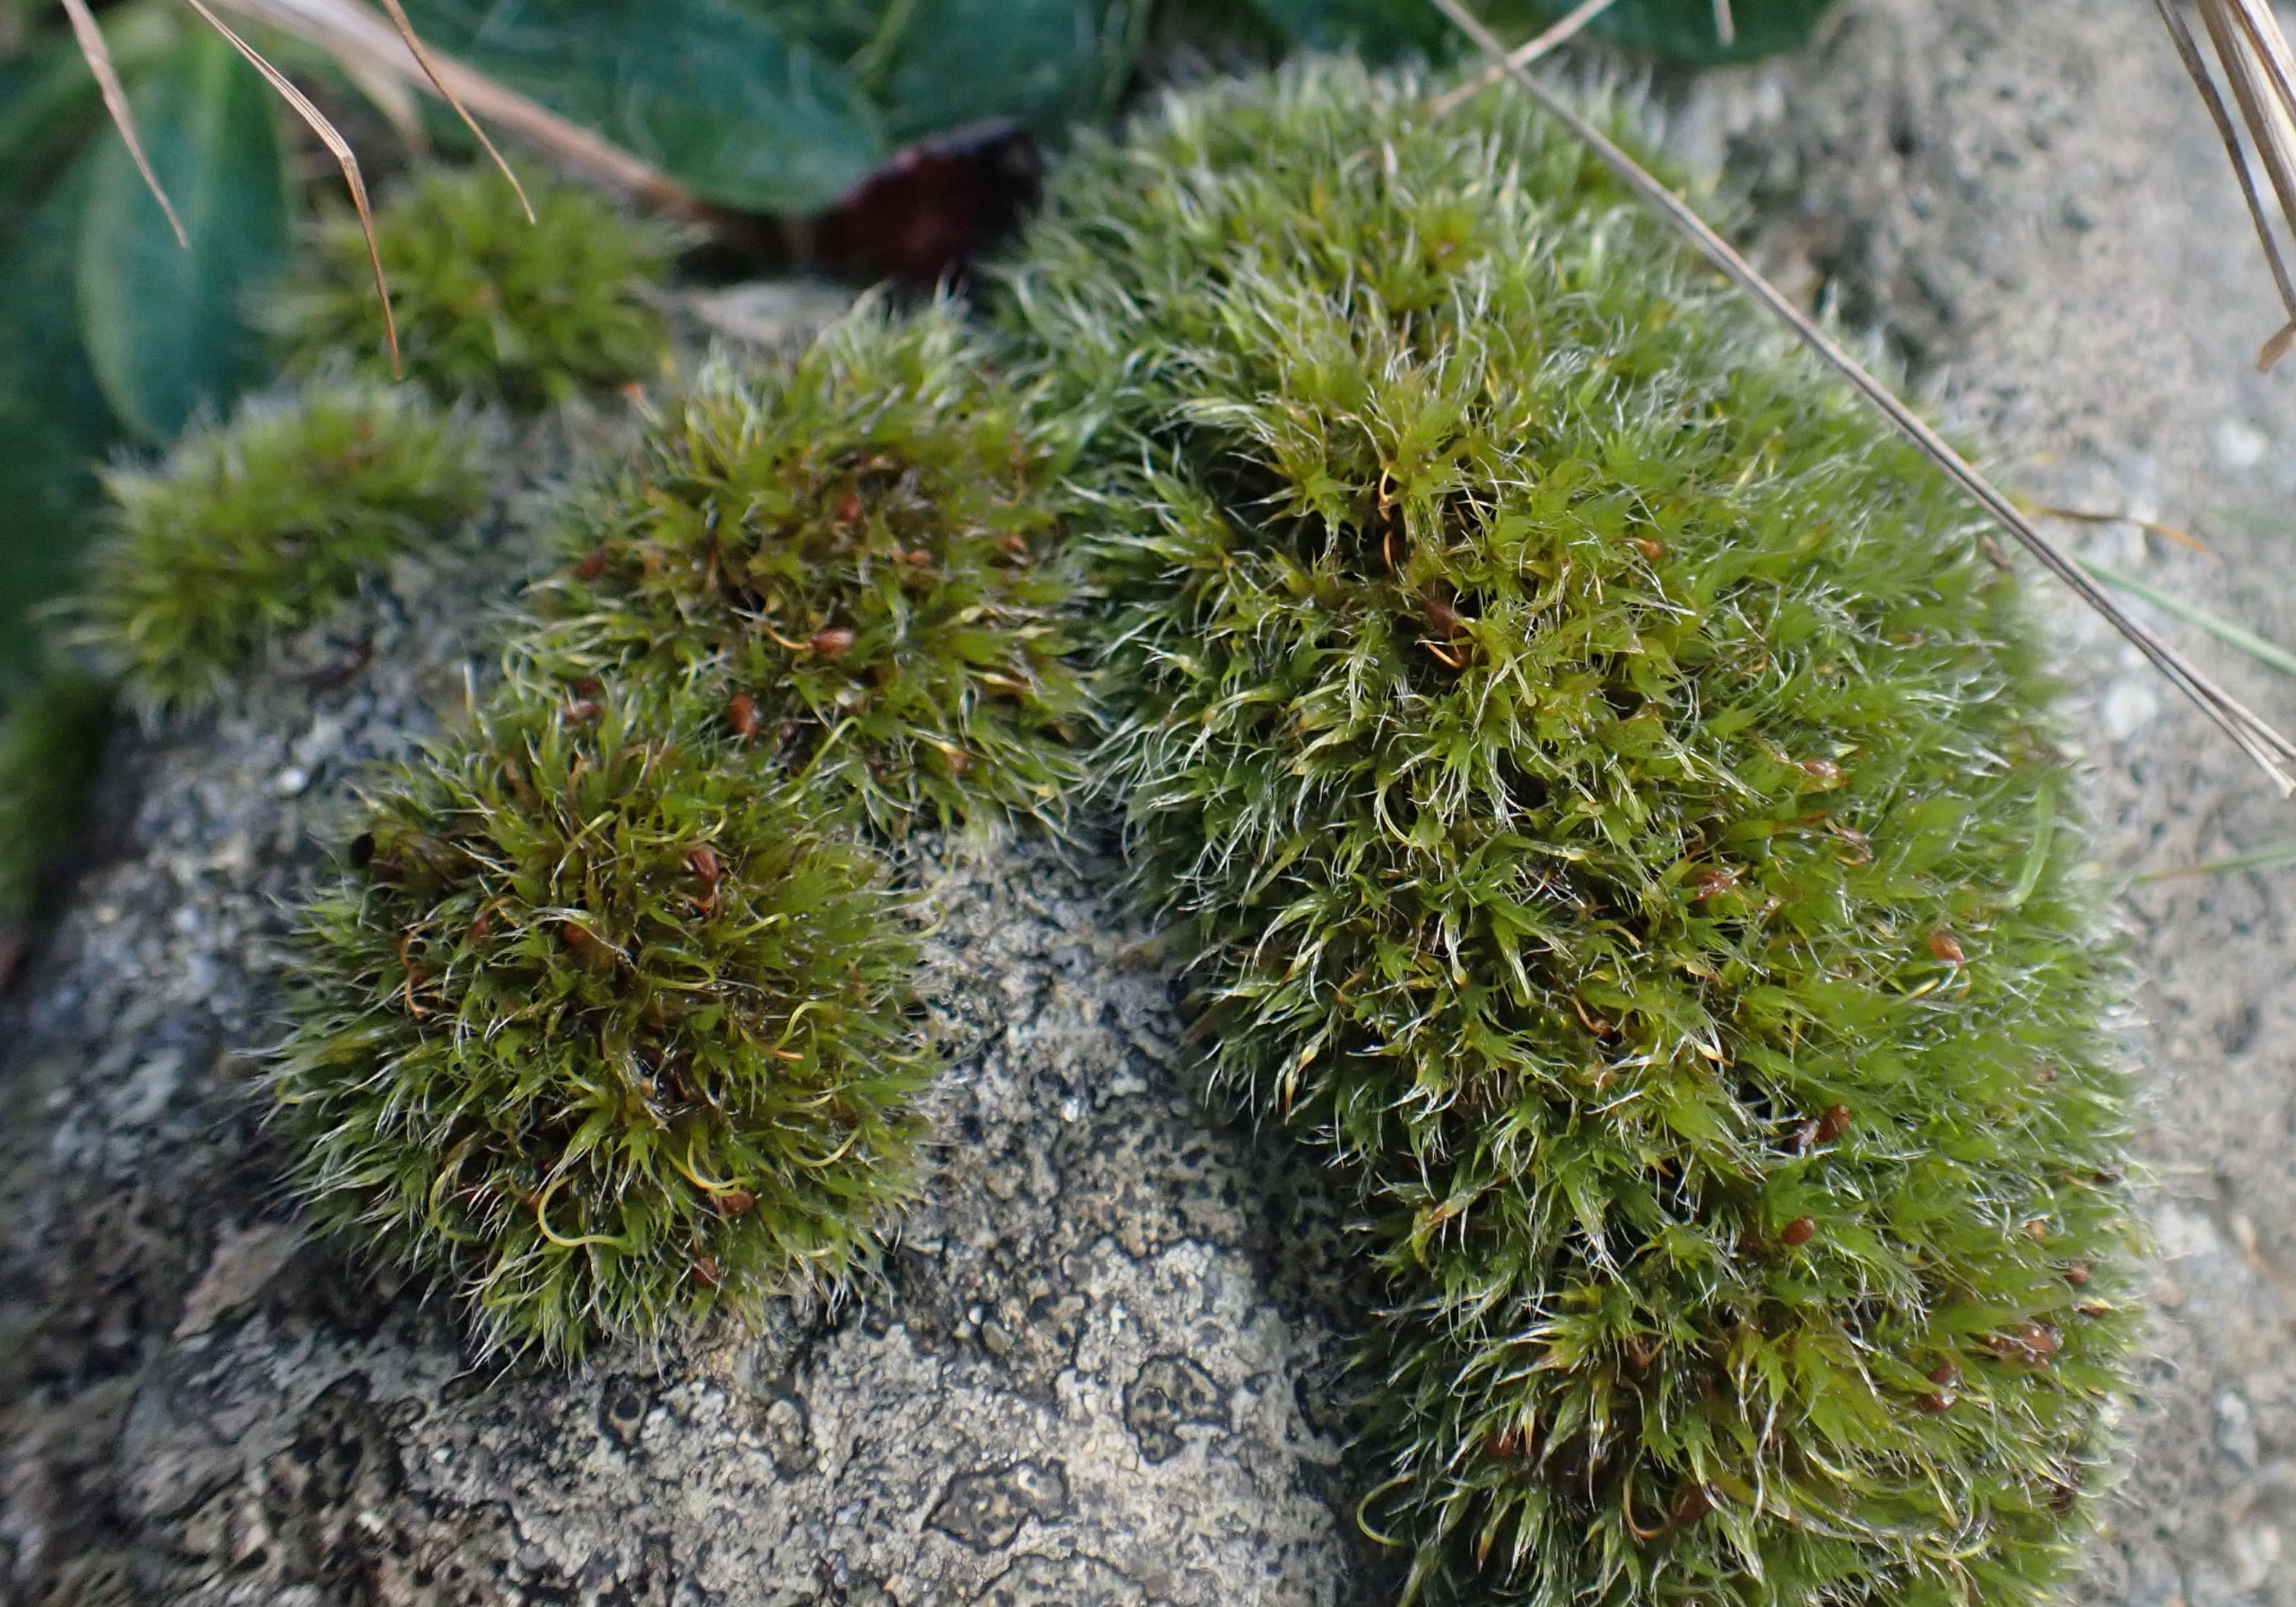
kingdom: Plantae
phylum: Bryophyta
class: Bryopsida
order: Grimmiales
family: Grimmiaceae
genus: Grimmia
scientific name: Grimmia pulvinata
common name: Pude-gråmos
